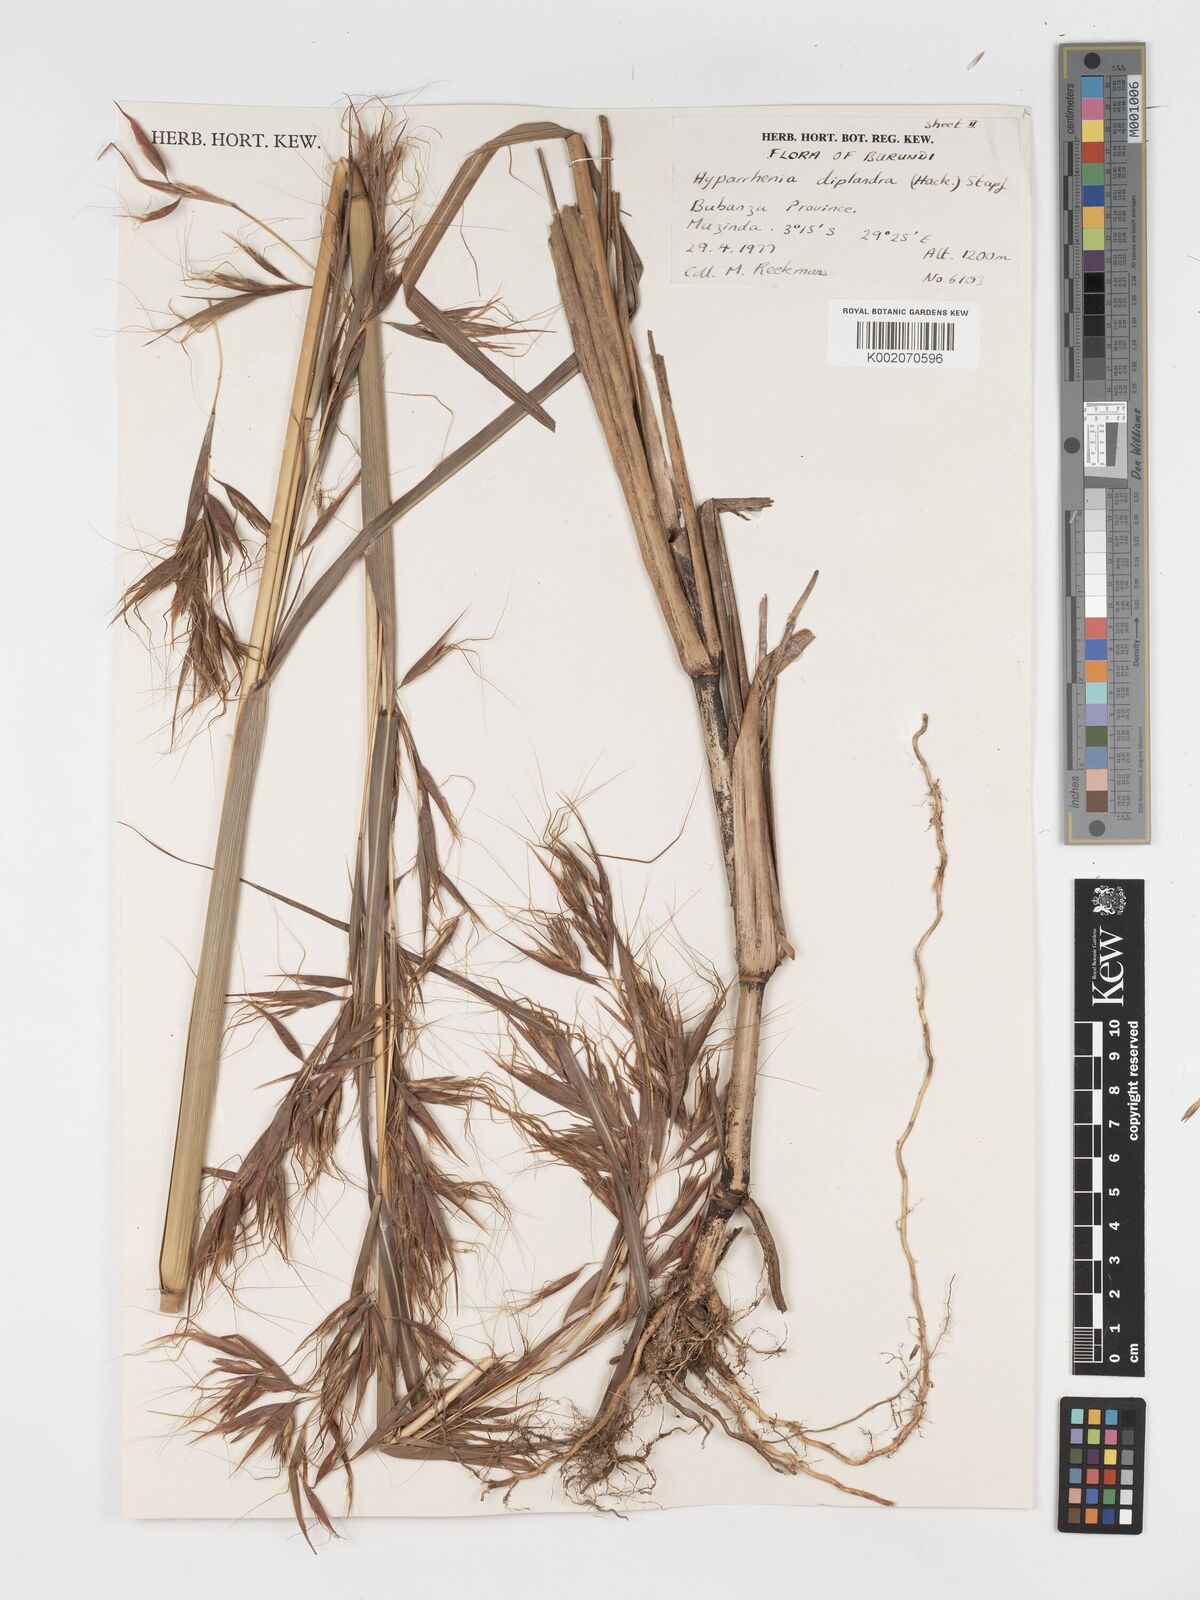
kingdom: Plantae
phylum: Tracheophyta
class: Liliopsida
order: Poales
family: Poaceae
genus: Hyparrhenia
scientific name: Hyparrhenia diplandra
